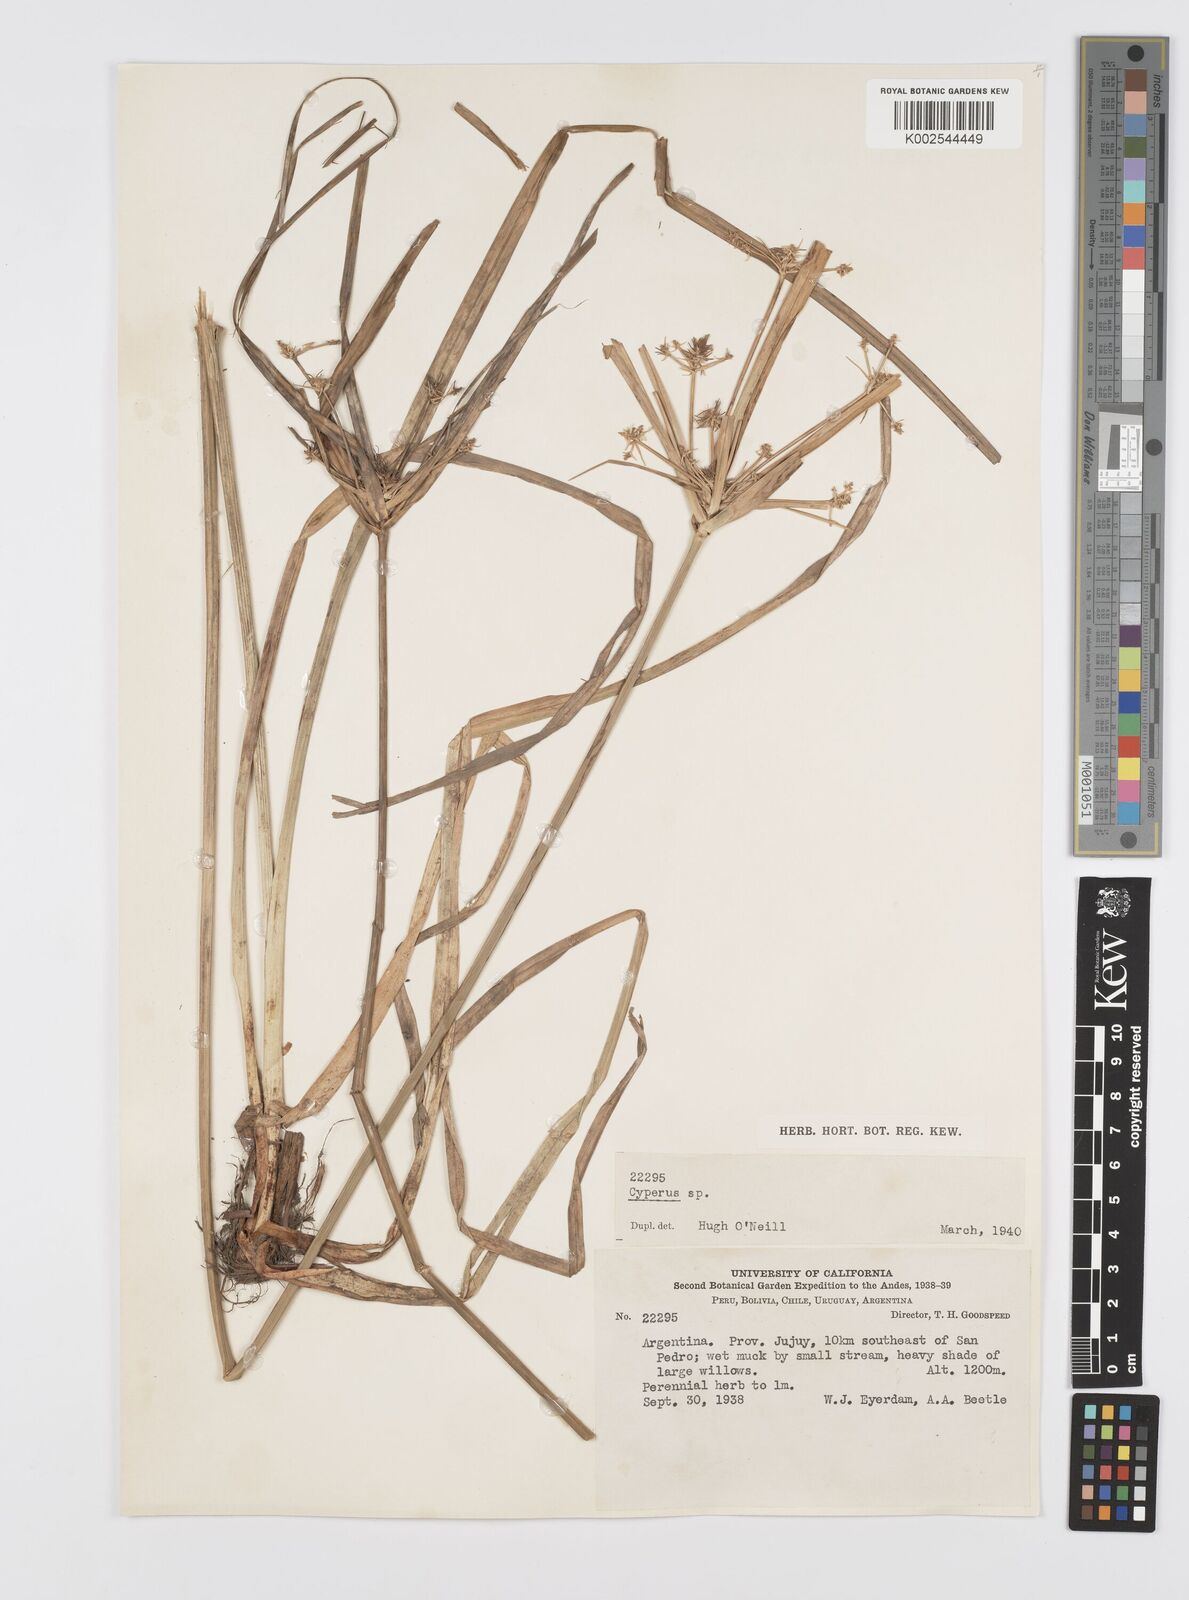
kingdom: Plantae
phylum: Tracheophyta
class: Liliopsida
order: Poales
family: Cyperaceae
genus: Cyperus
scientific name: Cyperus
